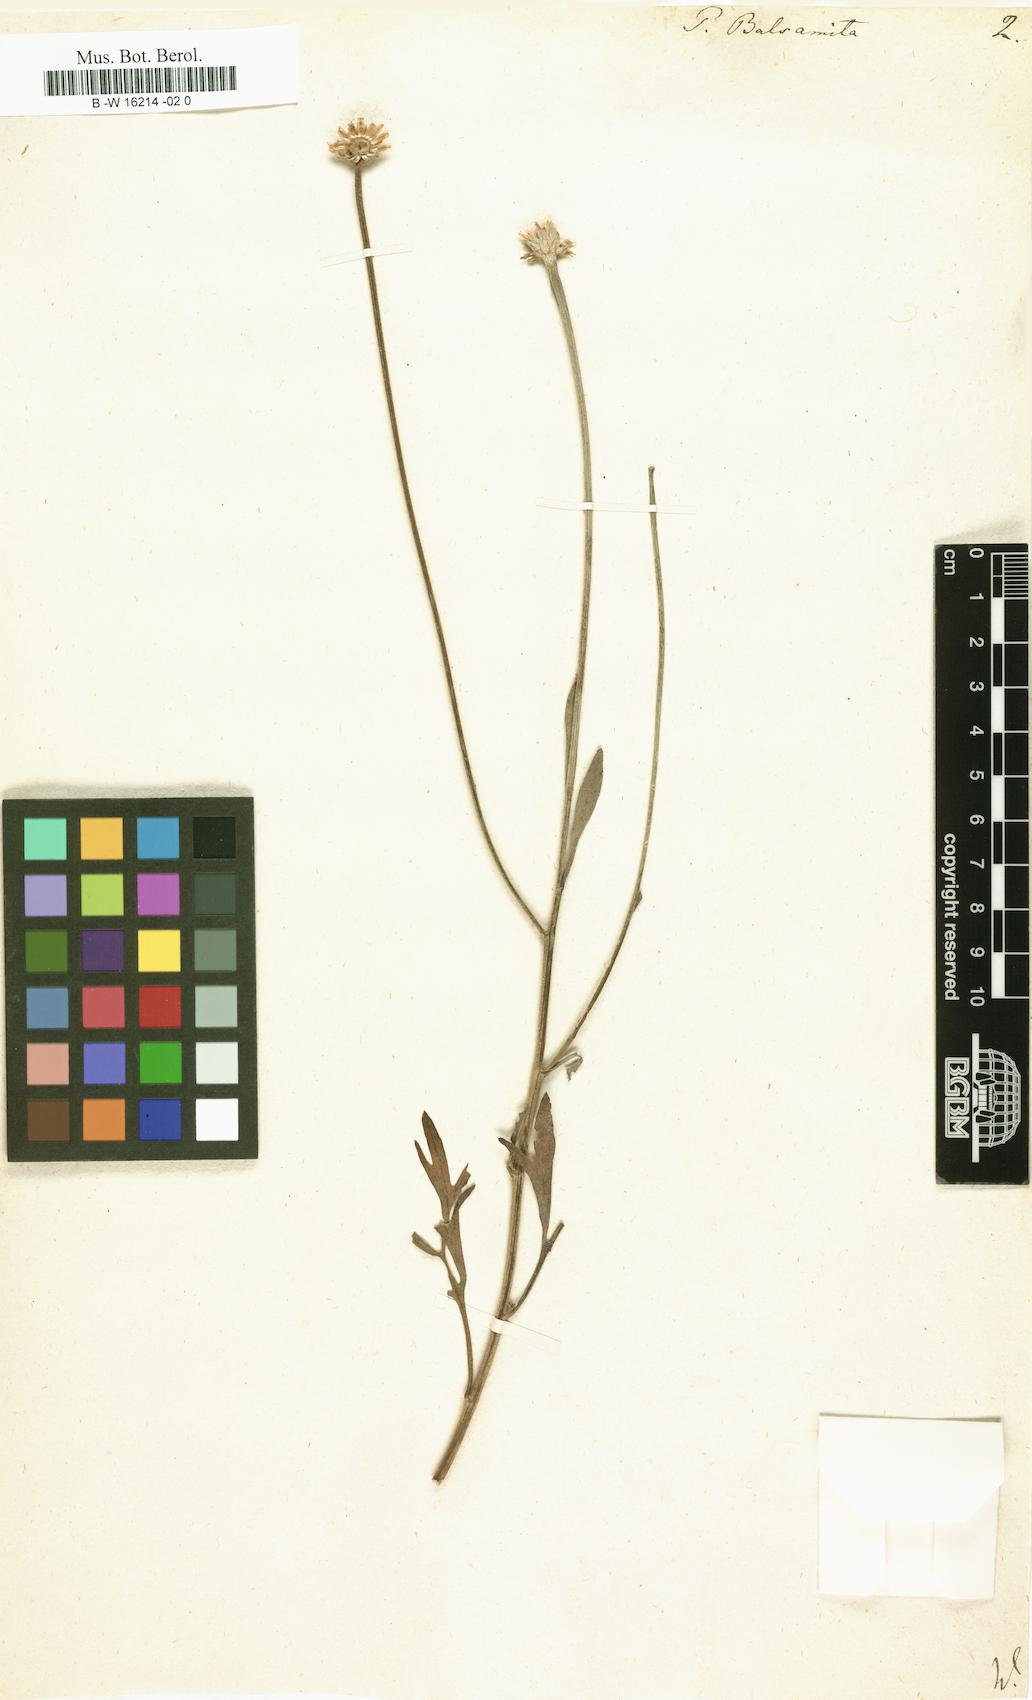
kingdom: Plantae
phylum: Tracheophyta
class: Magnoliopsida
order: Asterales
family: Asteraceae
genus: Tanacetum
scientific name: Tanacetum balsamita
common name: Costmary
